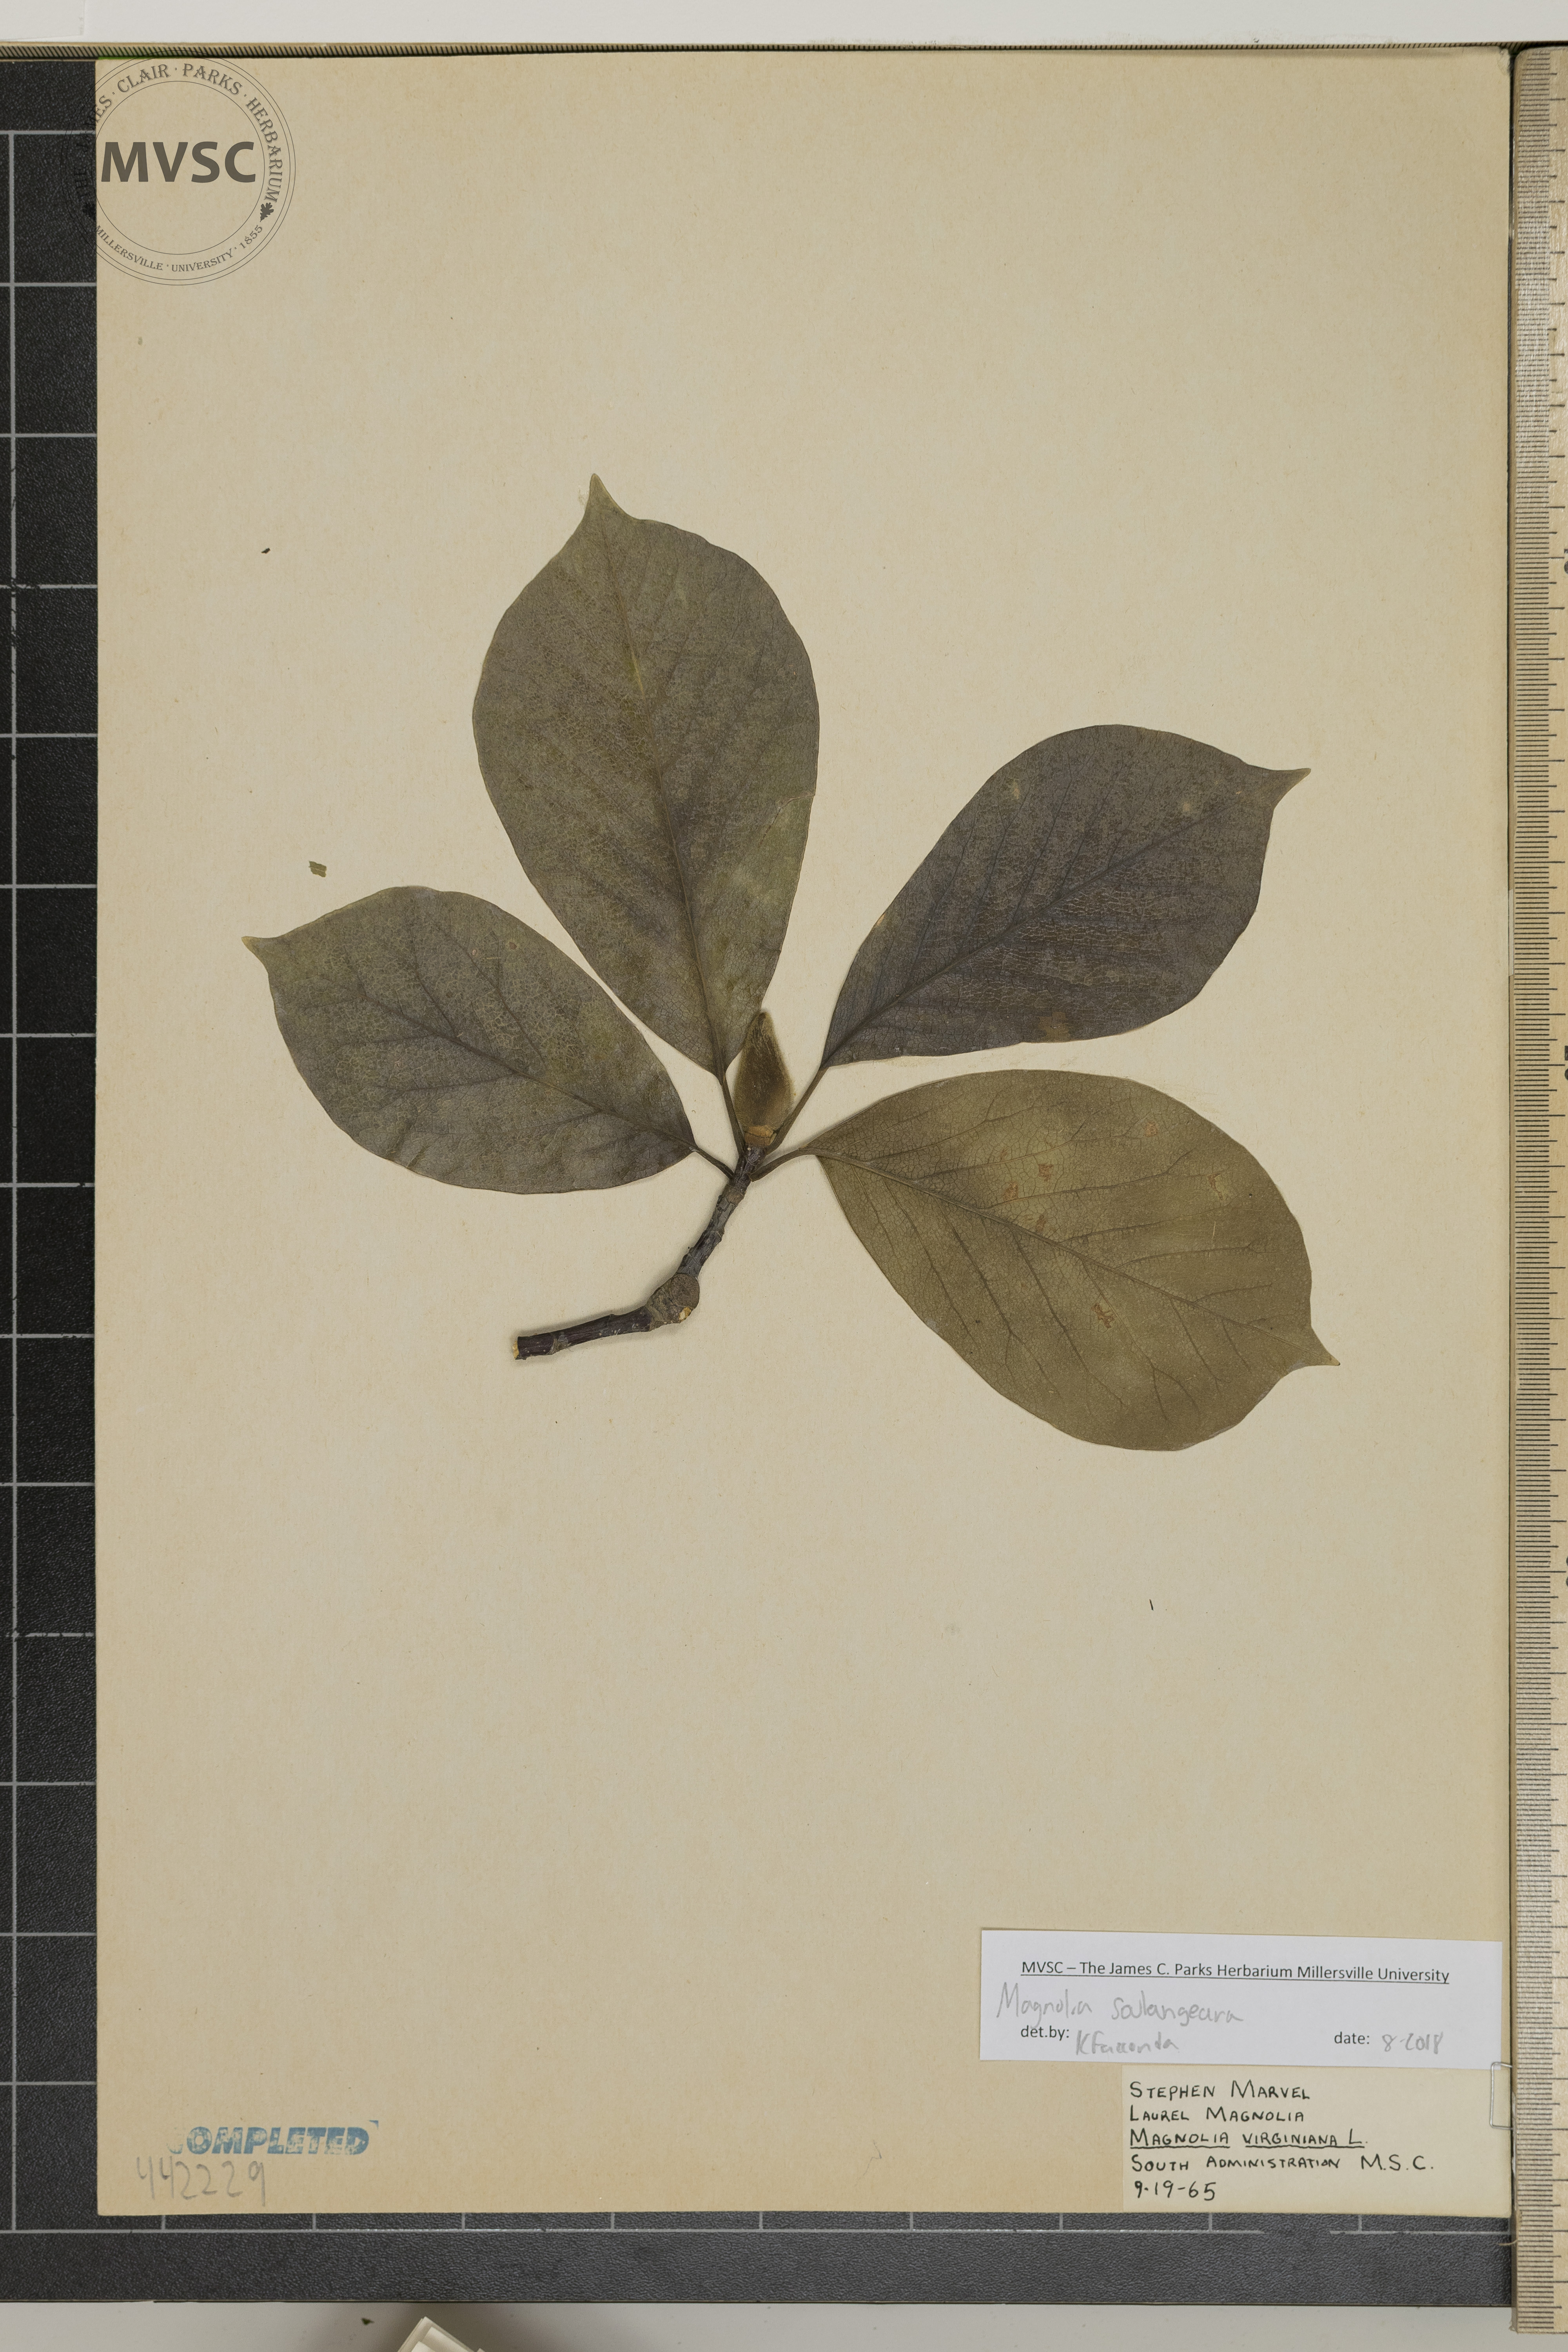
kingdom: Plantae
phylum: Tracheophyta
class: Magnoliopsida
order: Magnoliales
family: Magnoliaceae
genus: Magnolia
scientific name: Magnolia soulangeana
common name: Chinese magnolia
